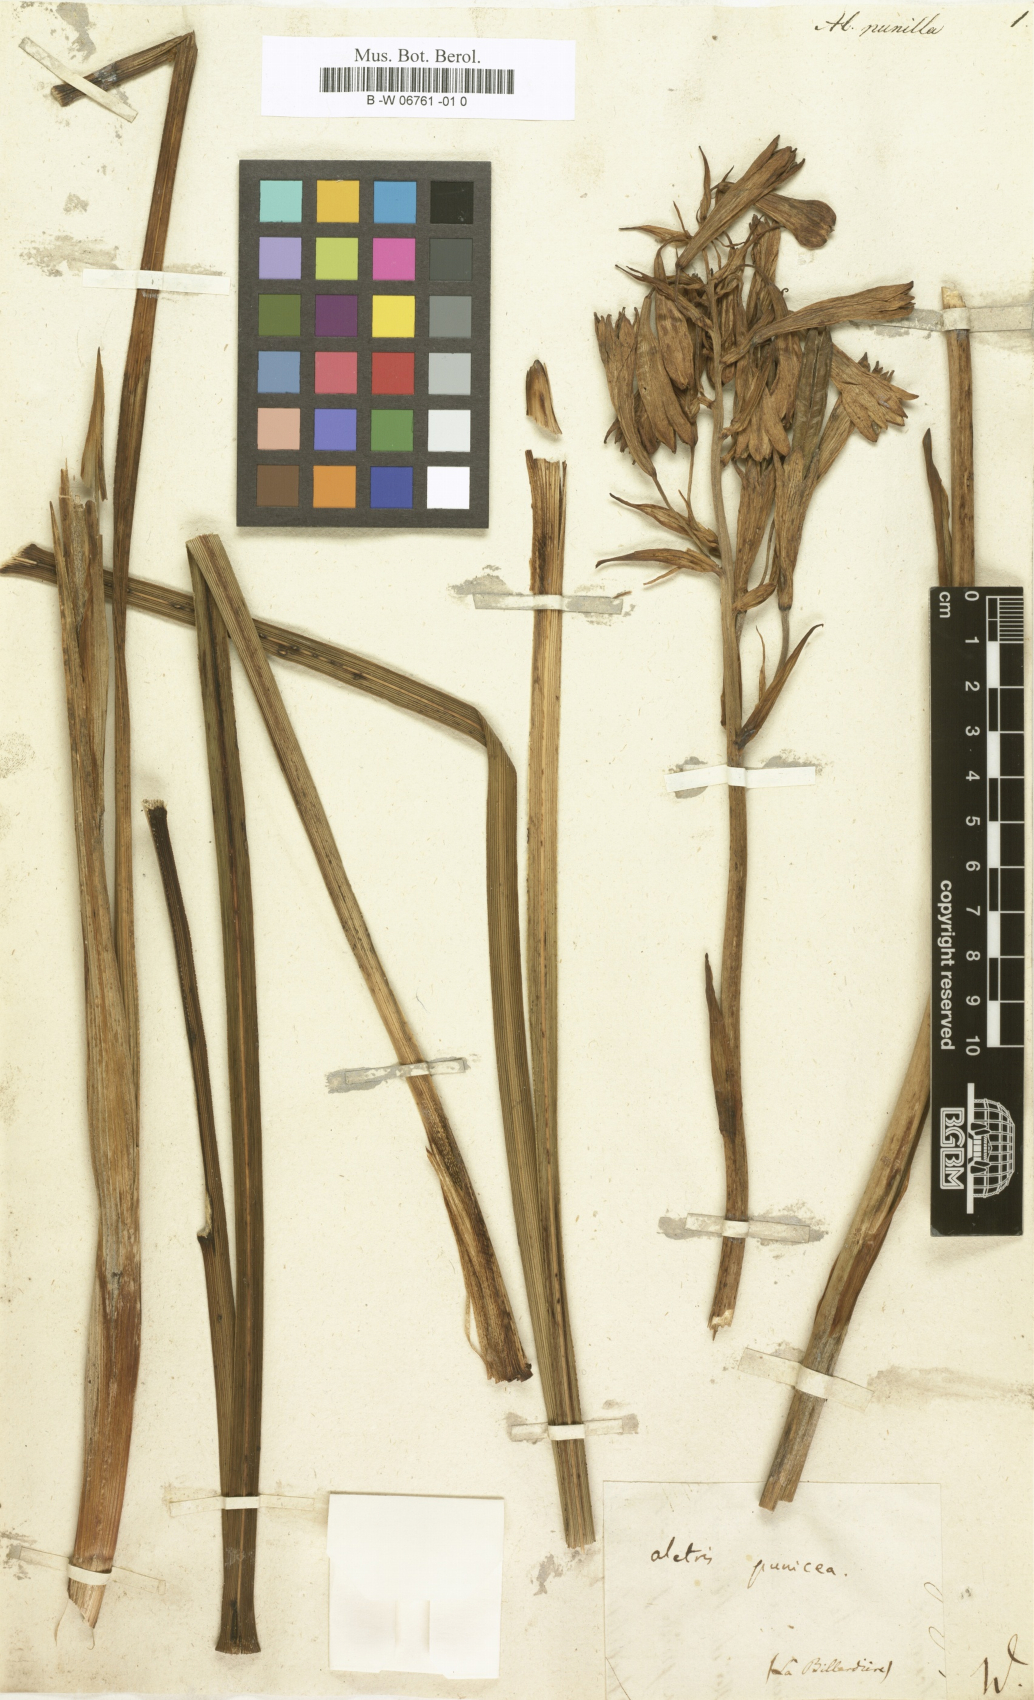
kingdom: Plantae
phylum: Tracheophyta
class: Liliopsida
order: Asparagales
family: Blandfordiaceae
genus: Blandfordia
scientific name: Blandfordia punicea
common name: Tasmanian christmas-bell
